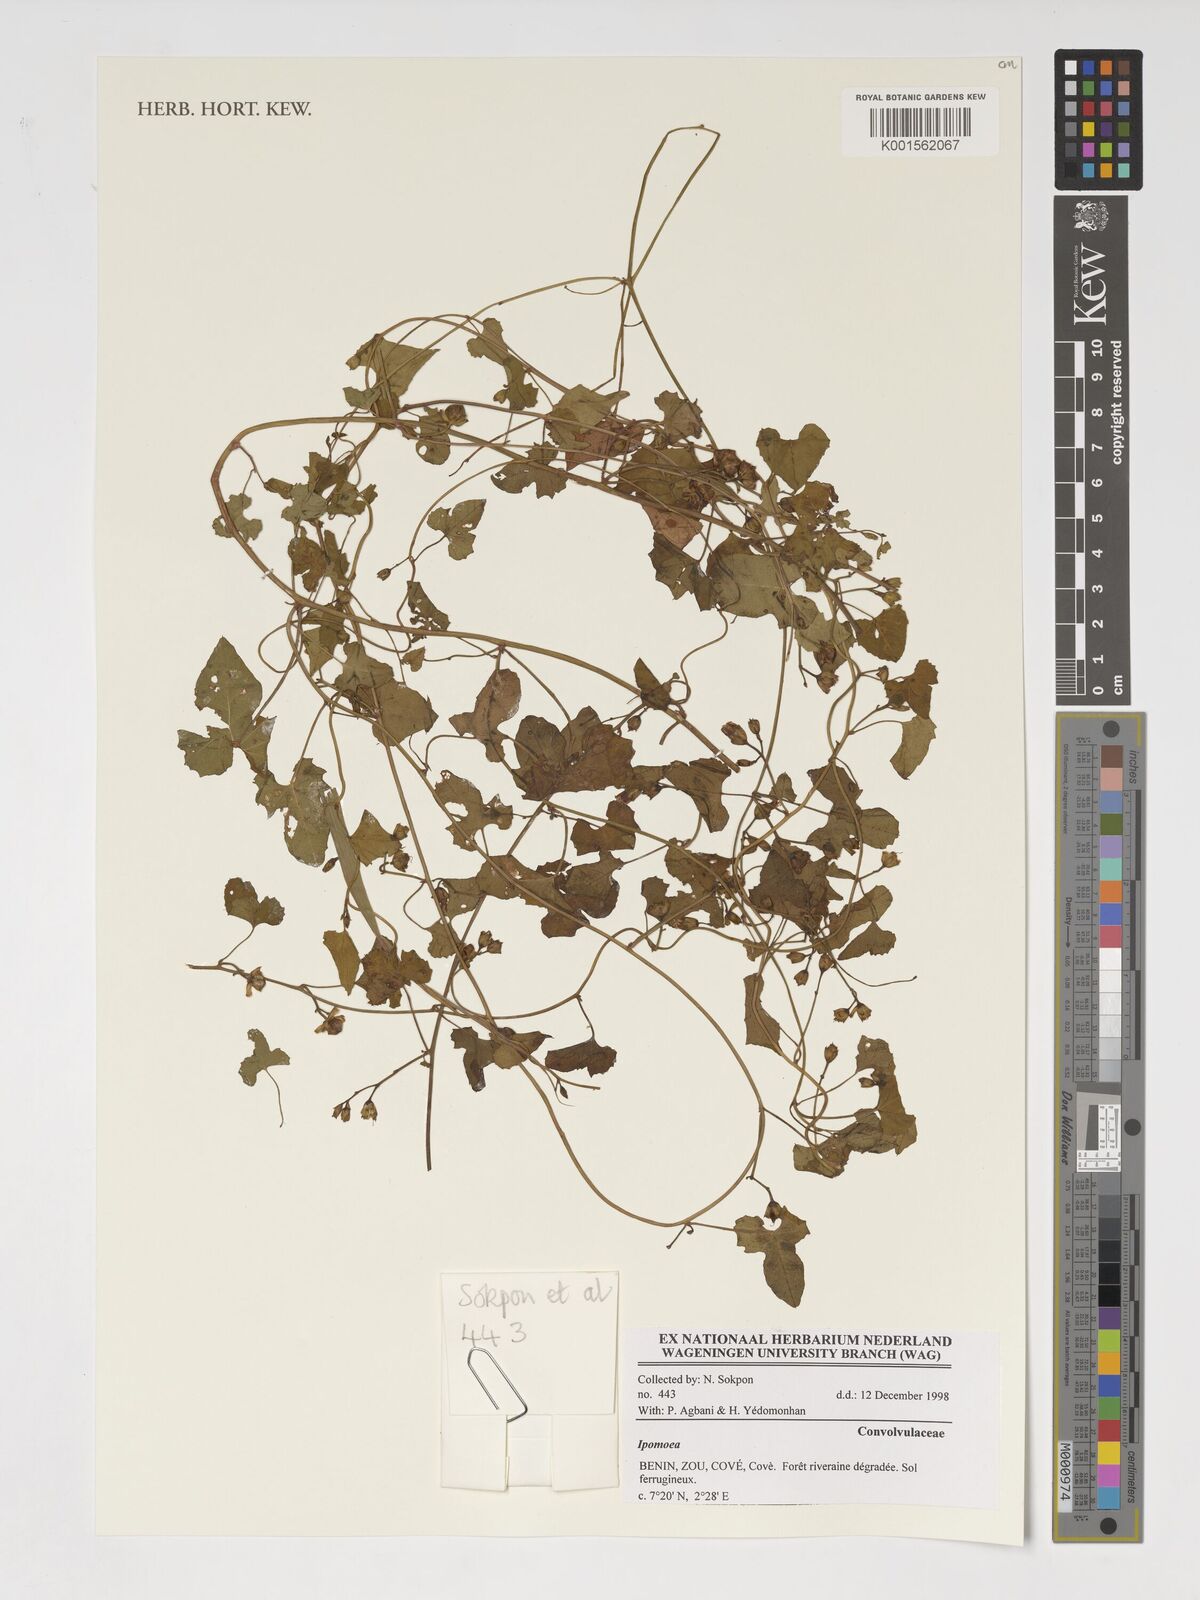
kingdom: Plantae
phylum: Tracheophyta
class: Magnoliopsida
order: Solanales
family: Convolvulaceae
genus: Ipomoea
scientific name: Ipomoea
